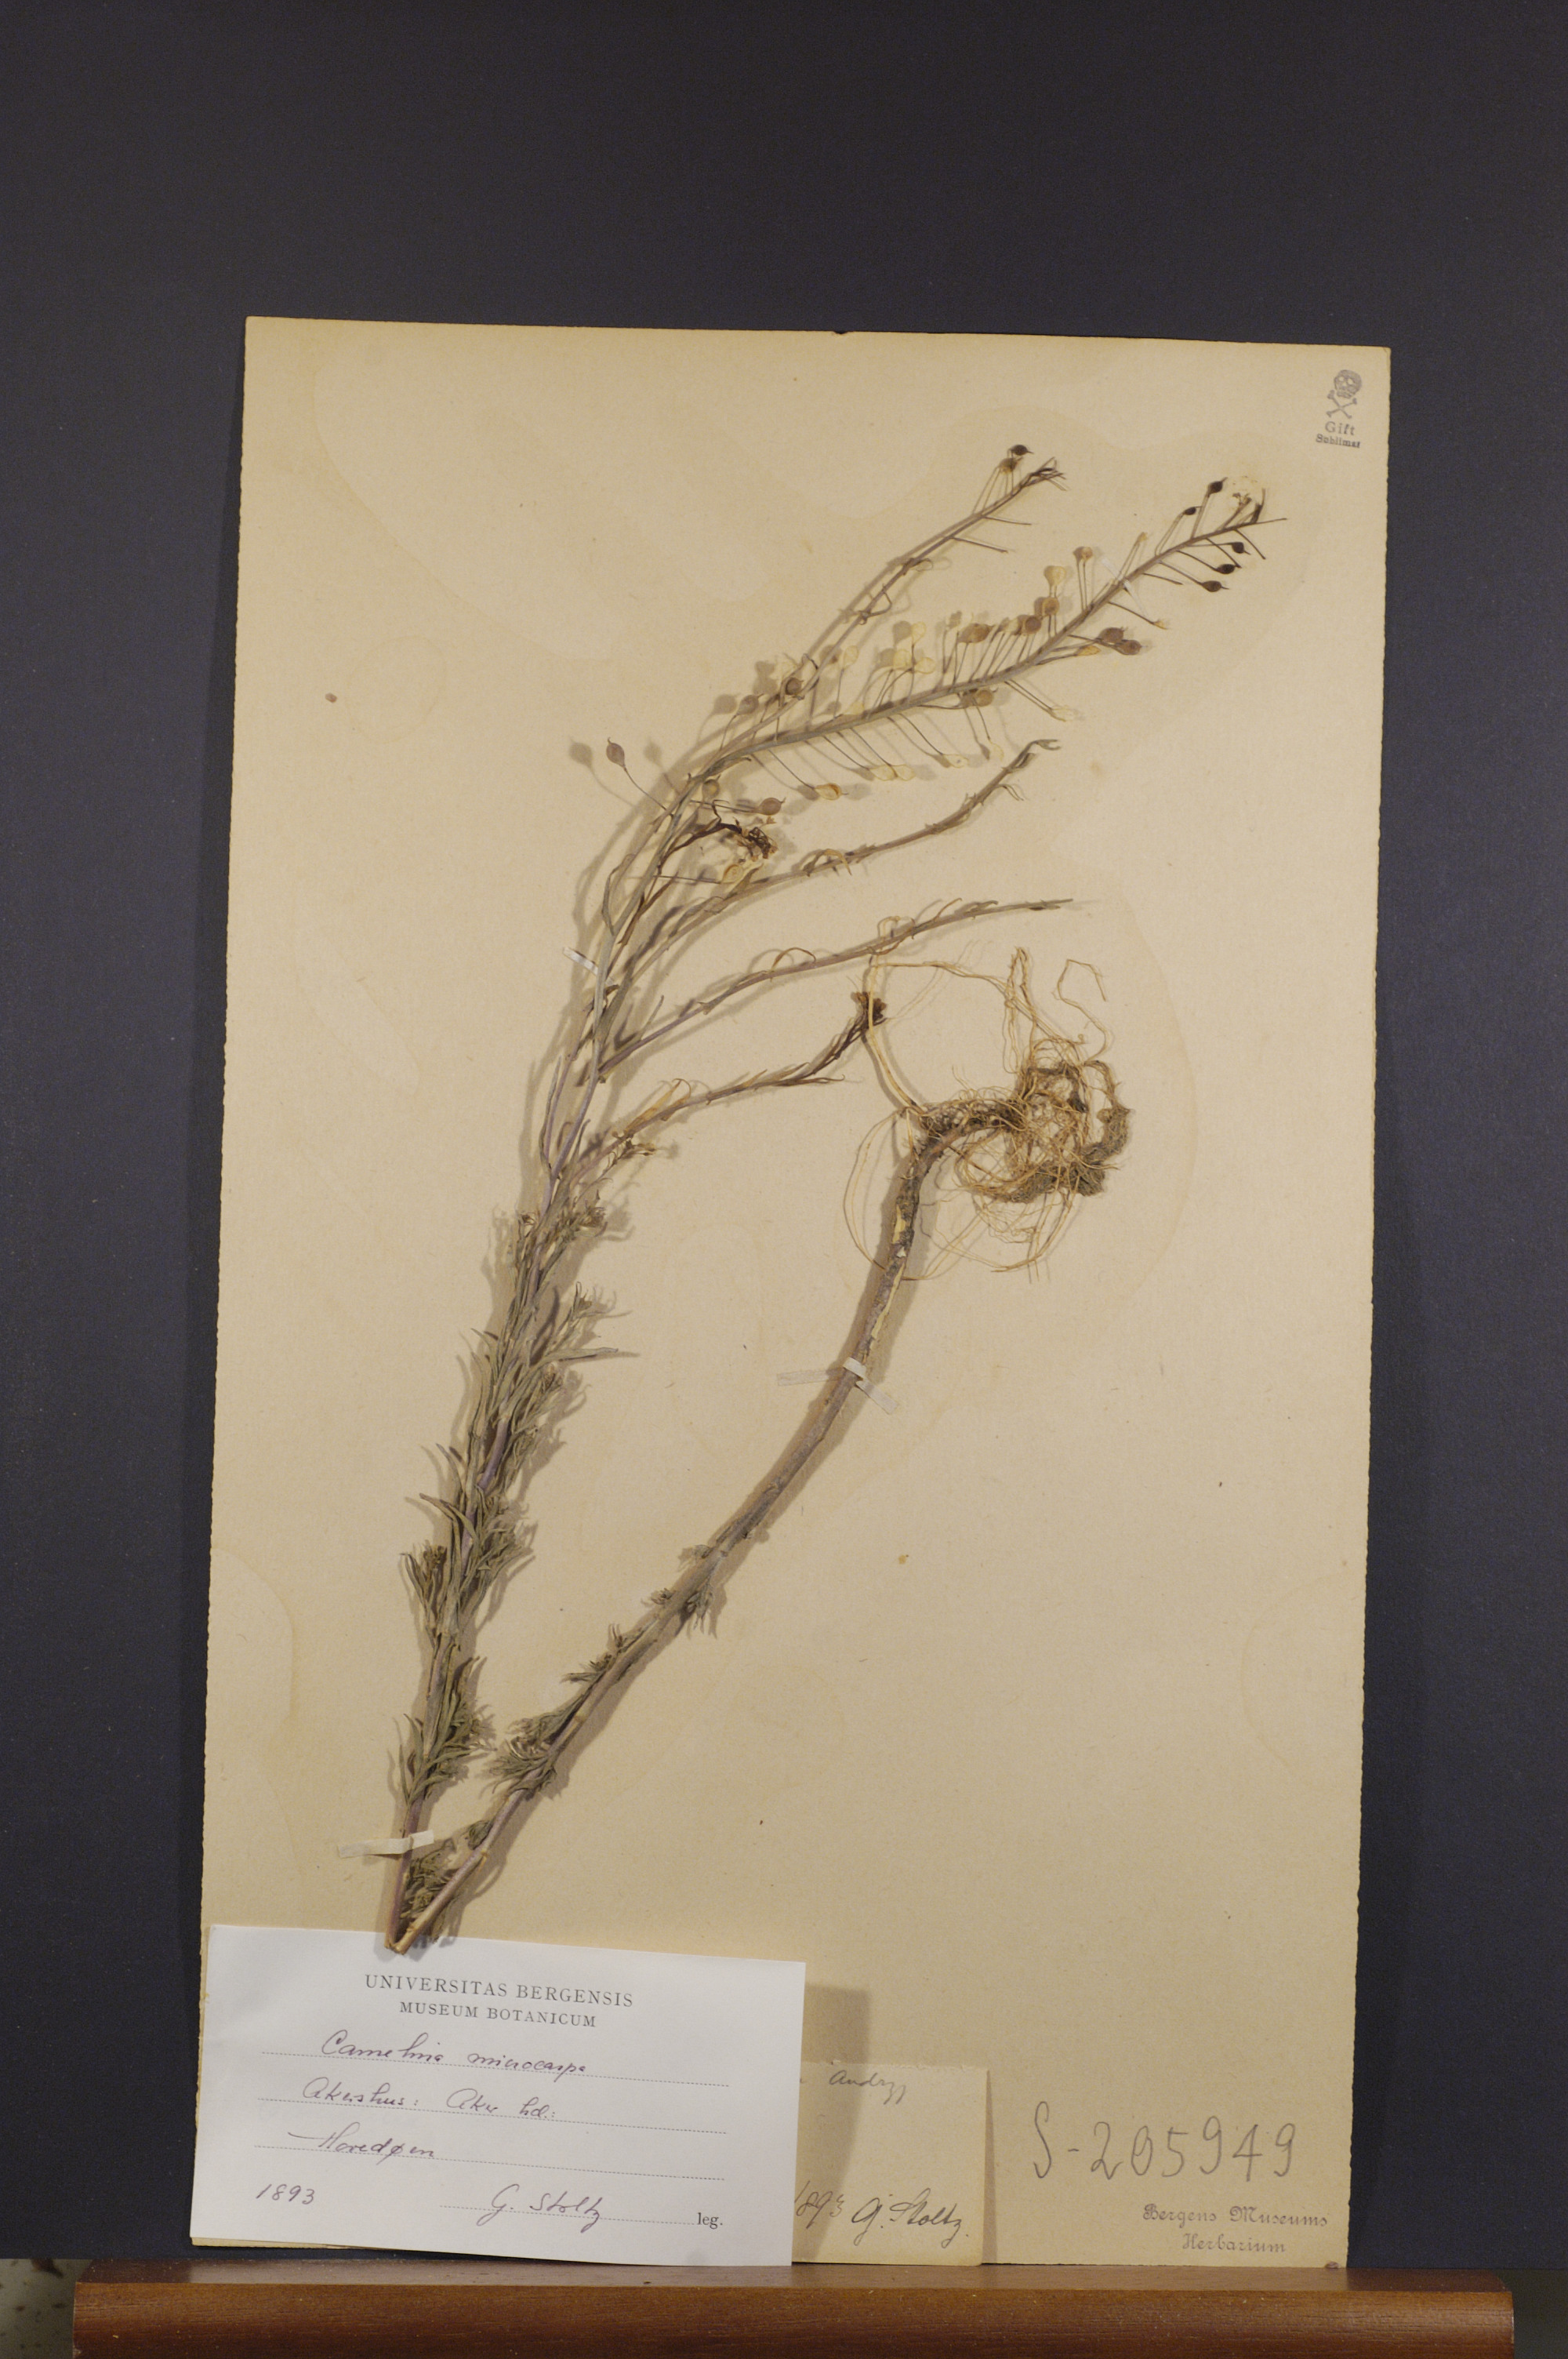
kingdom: Plantae
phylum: Tracheophyta
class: Magnoliopsida
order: Brassicales
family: Brassicaceae
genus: Camelina
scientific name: Camelina sativa
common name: Gold-of-pleasure
